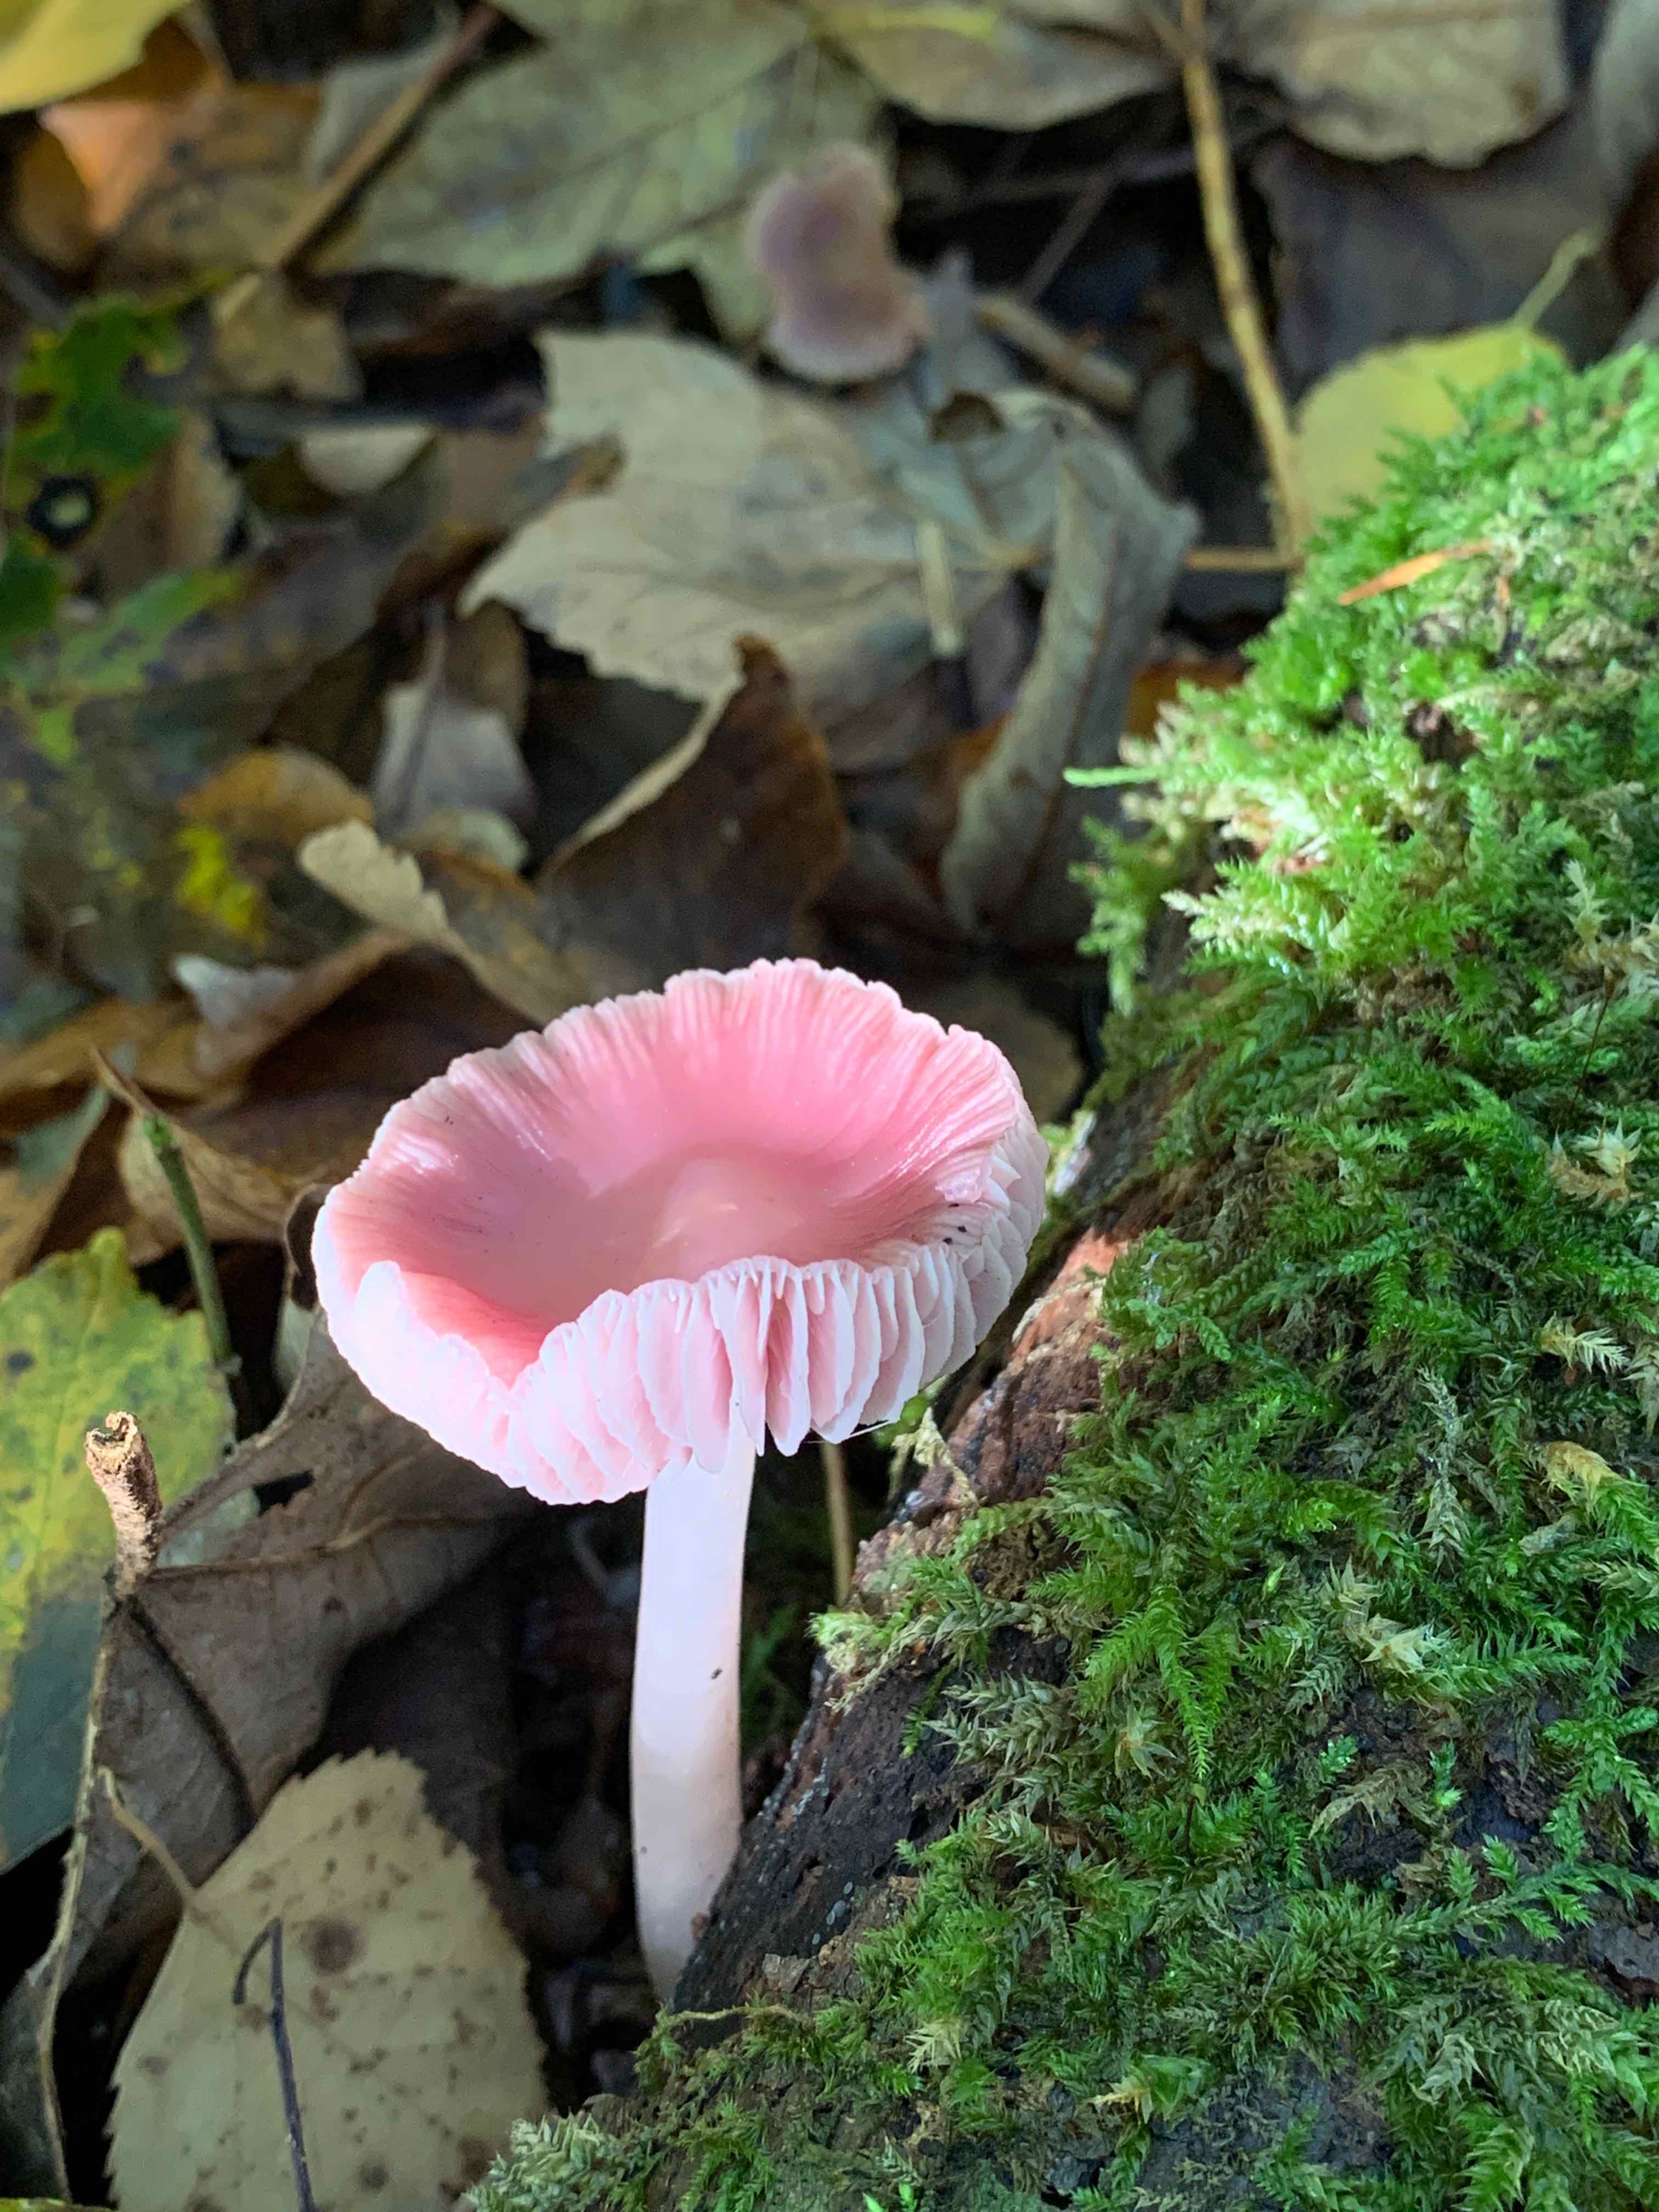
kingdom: Fungi
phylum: Basidiomycota
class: Agaricomycetes
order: Agaricales
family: Mycenaceae
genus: Mycena
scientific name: Mycena rosea
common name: rosa huesvamp
